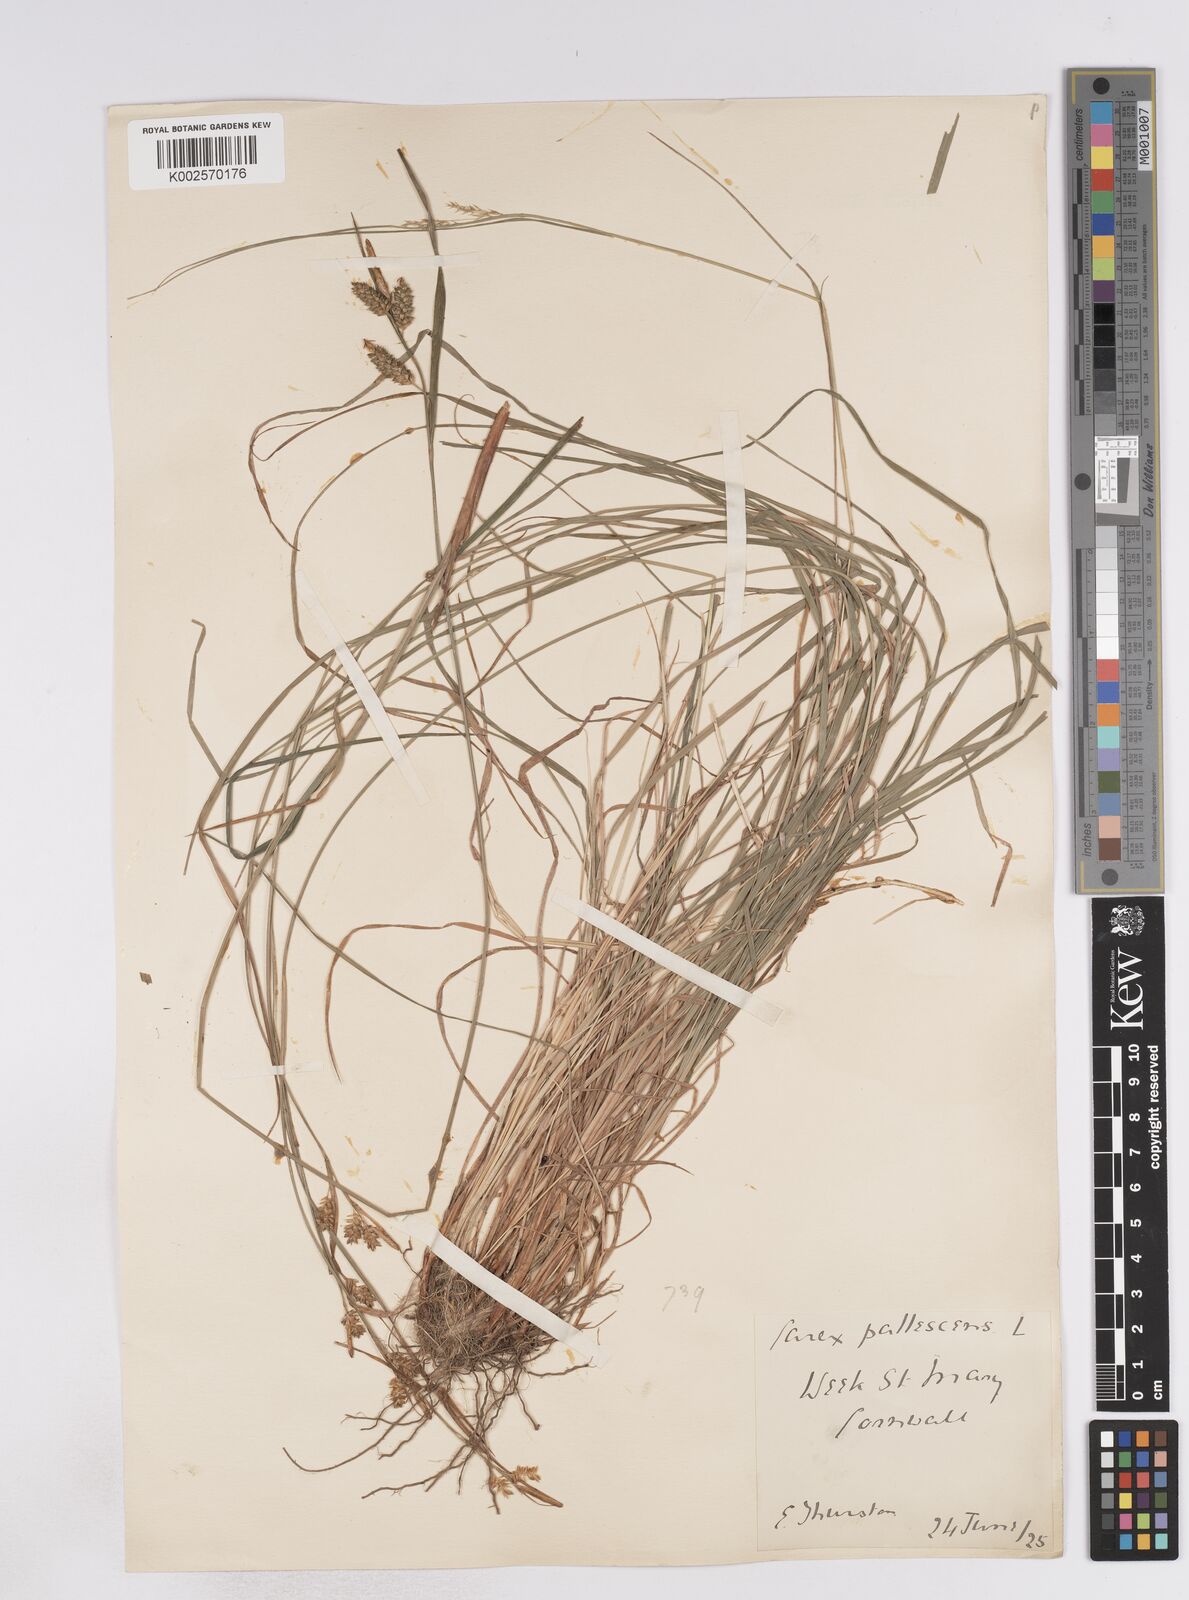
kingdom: Plantae
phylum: Tracheophyta
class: Liliopsida
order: Poales
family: Cyperaceae
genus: Carex
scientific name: Carex pallescens
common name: Pale sedge
